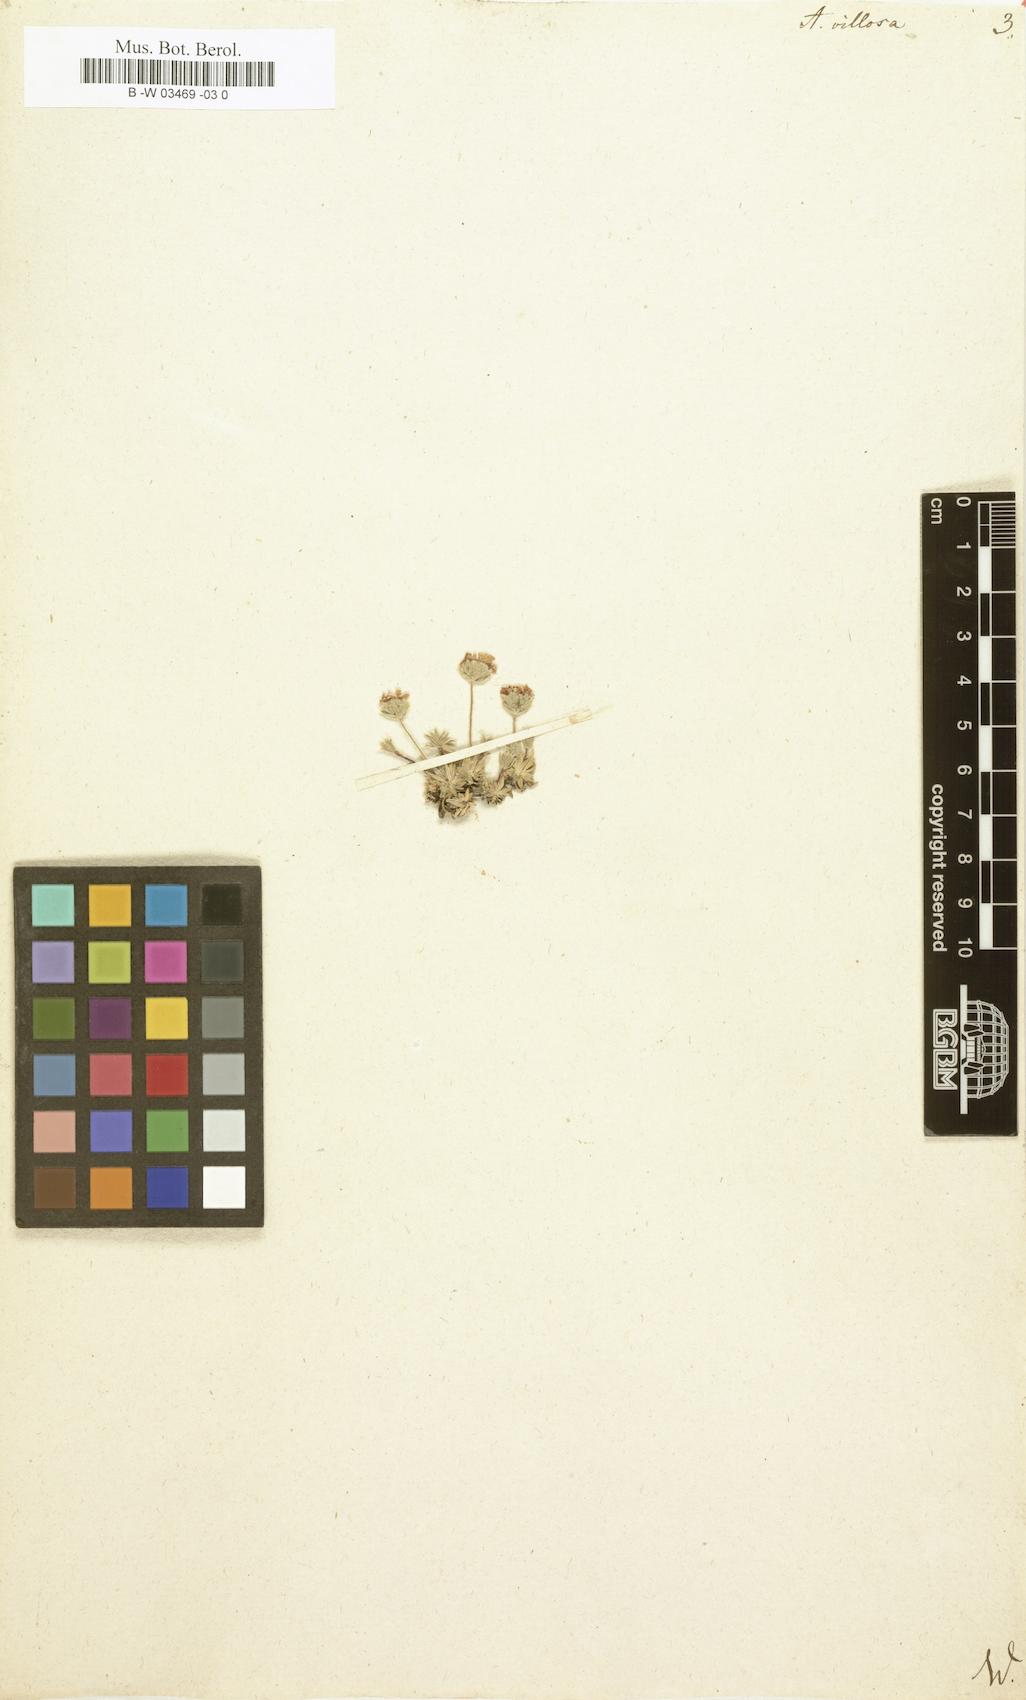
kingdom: Plantae
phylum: Tracheophyta
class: Magnoliopsida
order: Ericales
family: Primulaceae
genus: Androsace
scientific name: Androsace villosa
